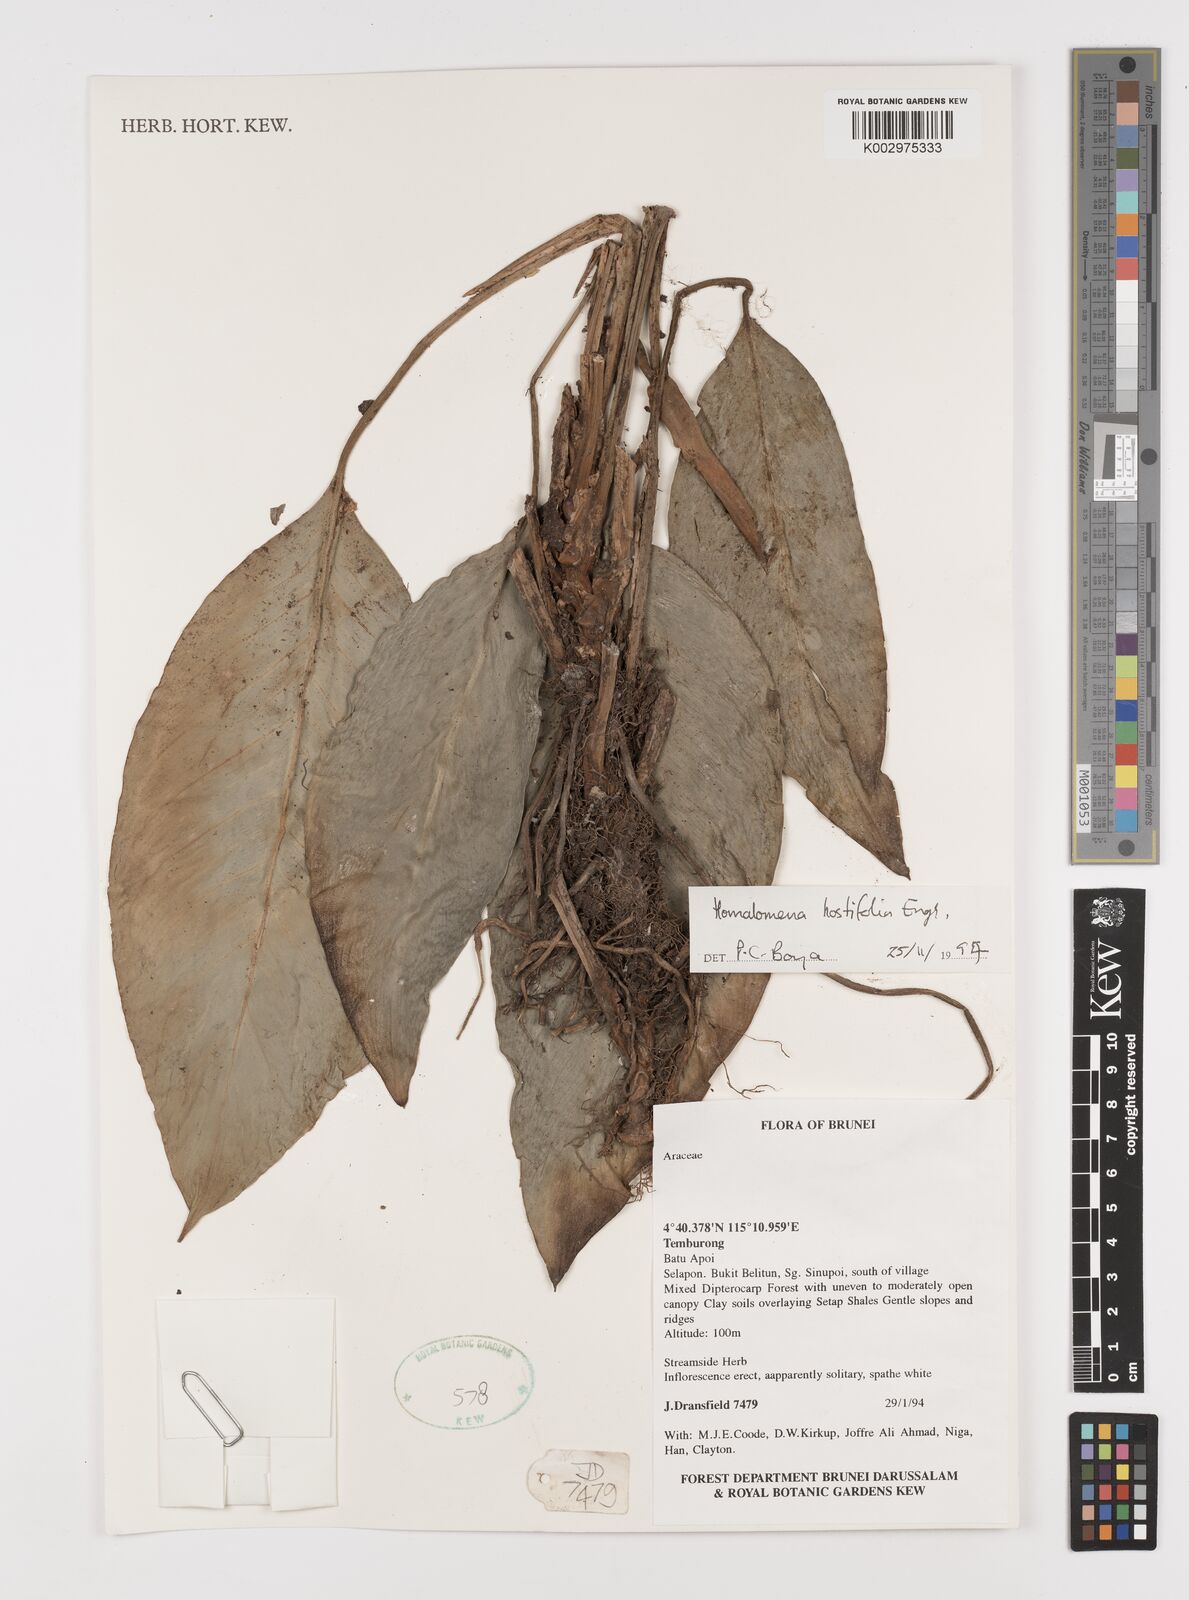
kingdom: Plantae
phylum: Tracheophyta
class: Liliopsida
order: Alismatales
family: Araceae
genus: Homalomena
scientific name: Homalomena ovata
